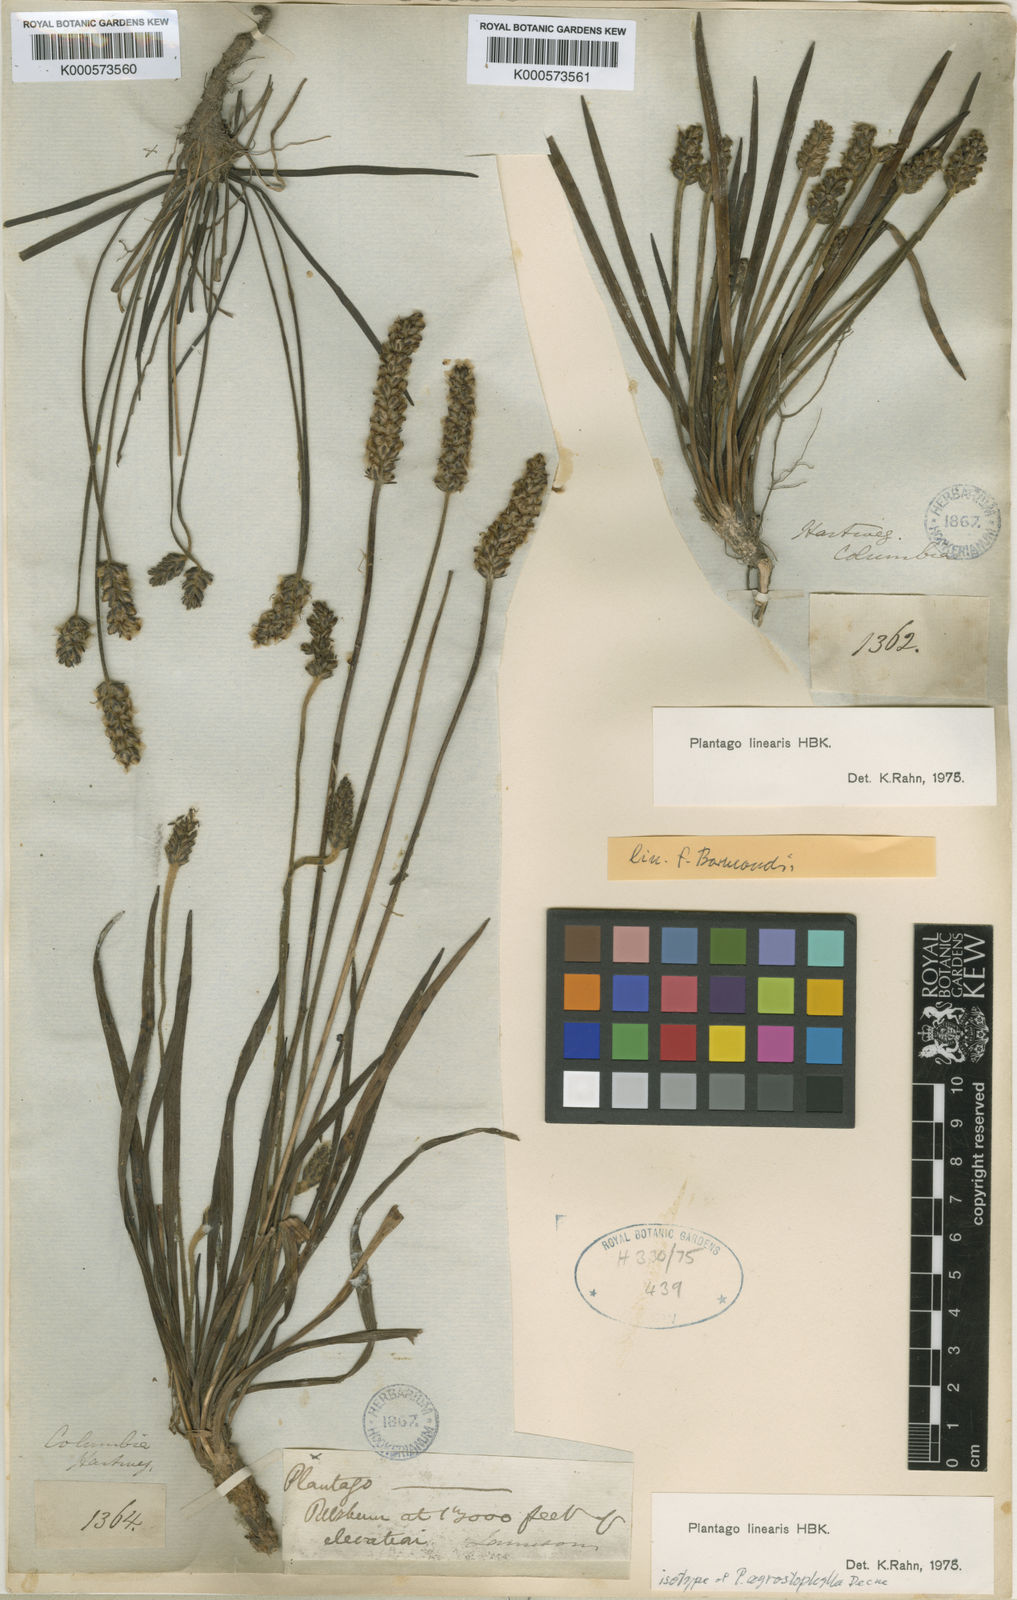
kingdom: Plantae
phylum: Tracheophyta
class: Magnoliopsida
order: Lamiales
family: Plantaginaceae
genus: Plantago
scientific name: Plantago linearis
